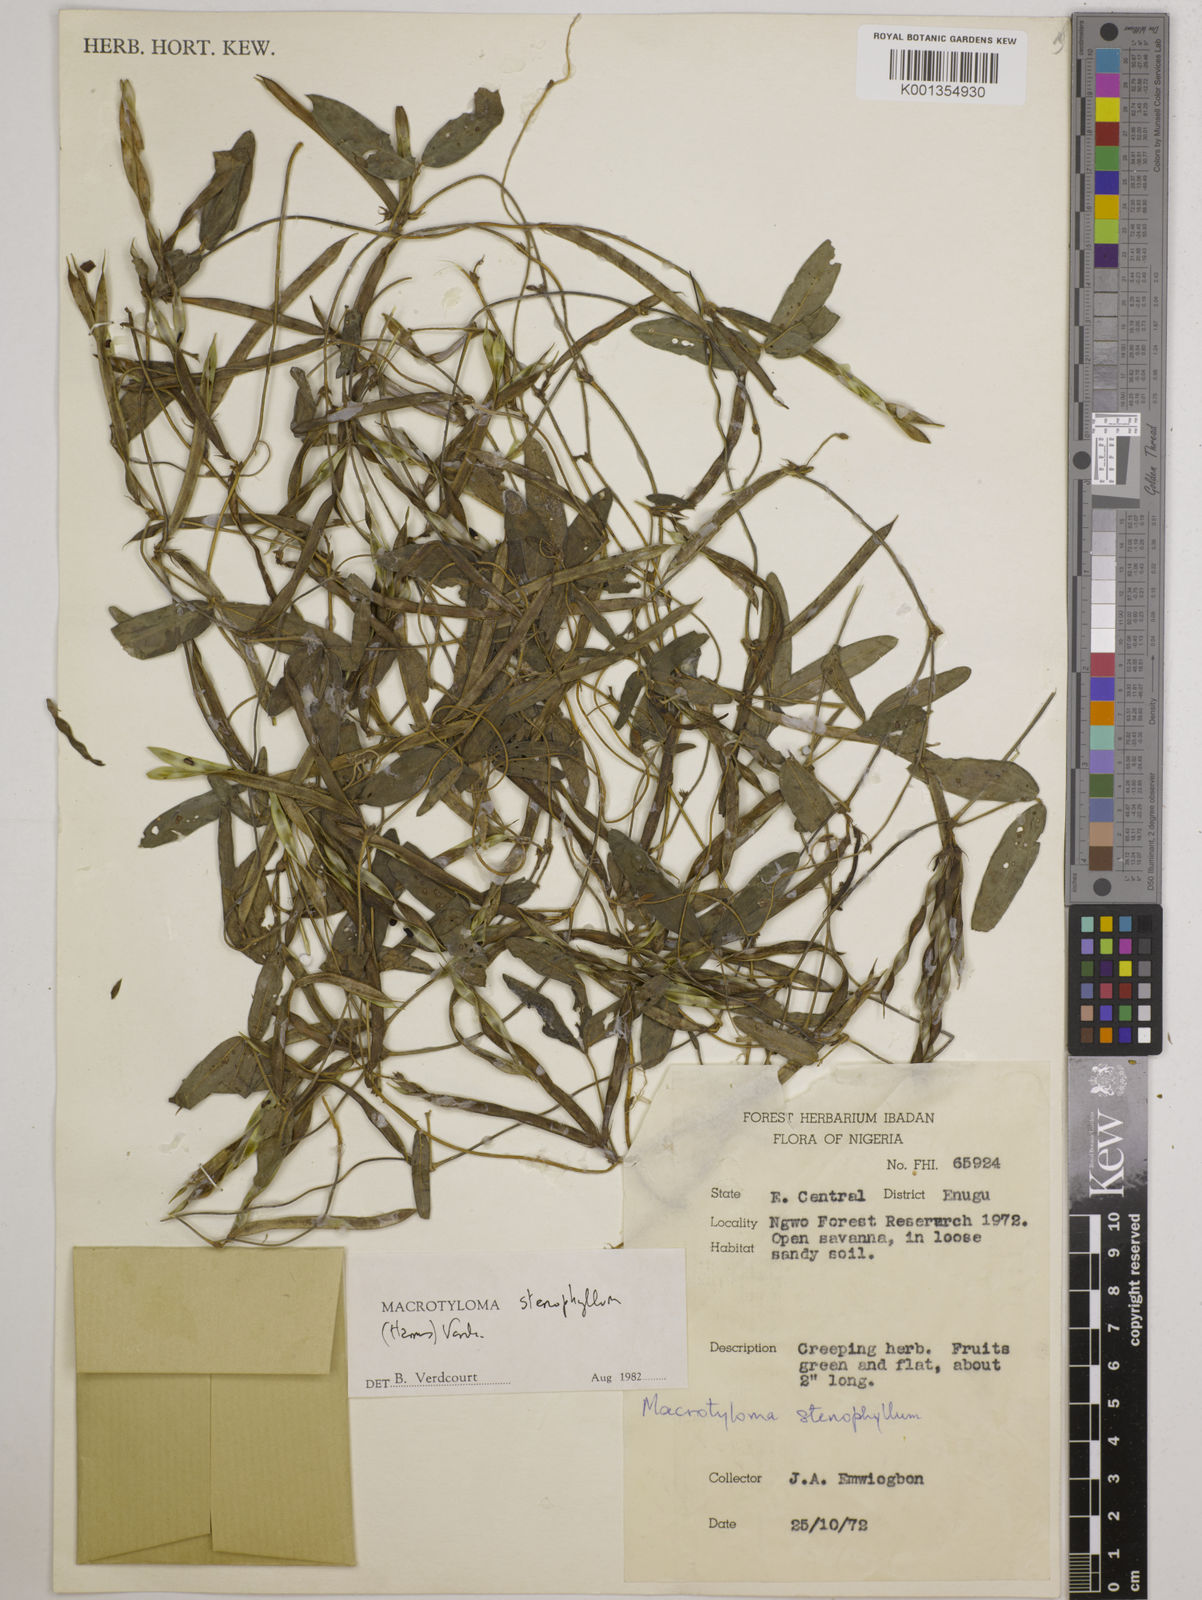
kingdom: Plantae
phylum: Tracheophyta
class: Magnoliopsida
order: Fabales
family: Fabaceae
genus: Macrotyloma
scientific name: Macrotyloma stenophyllum
